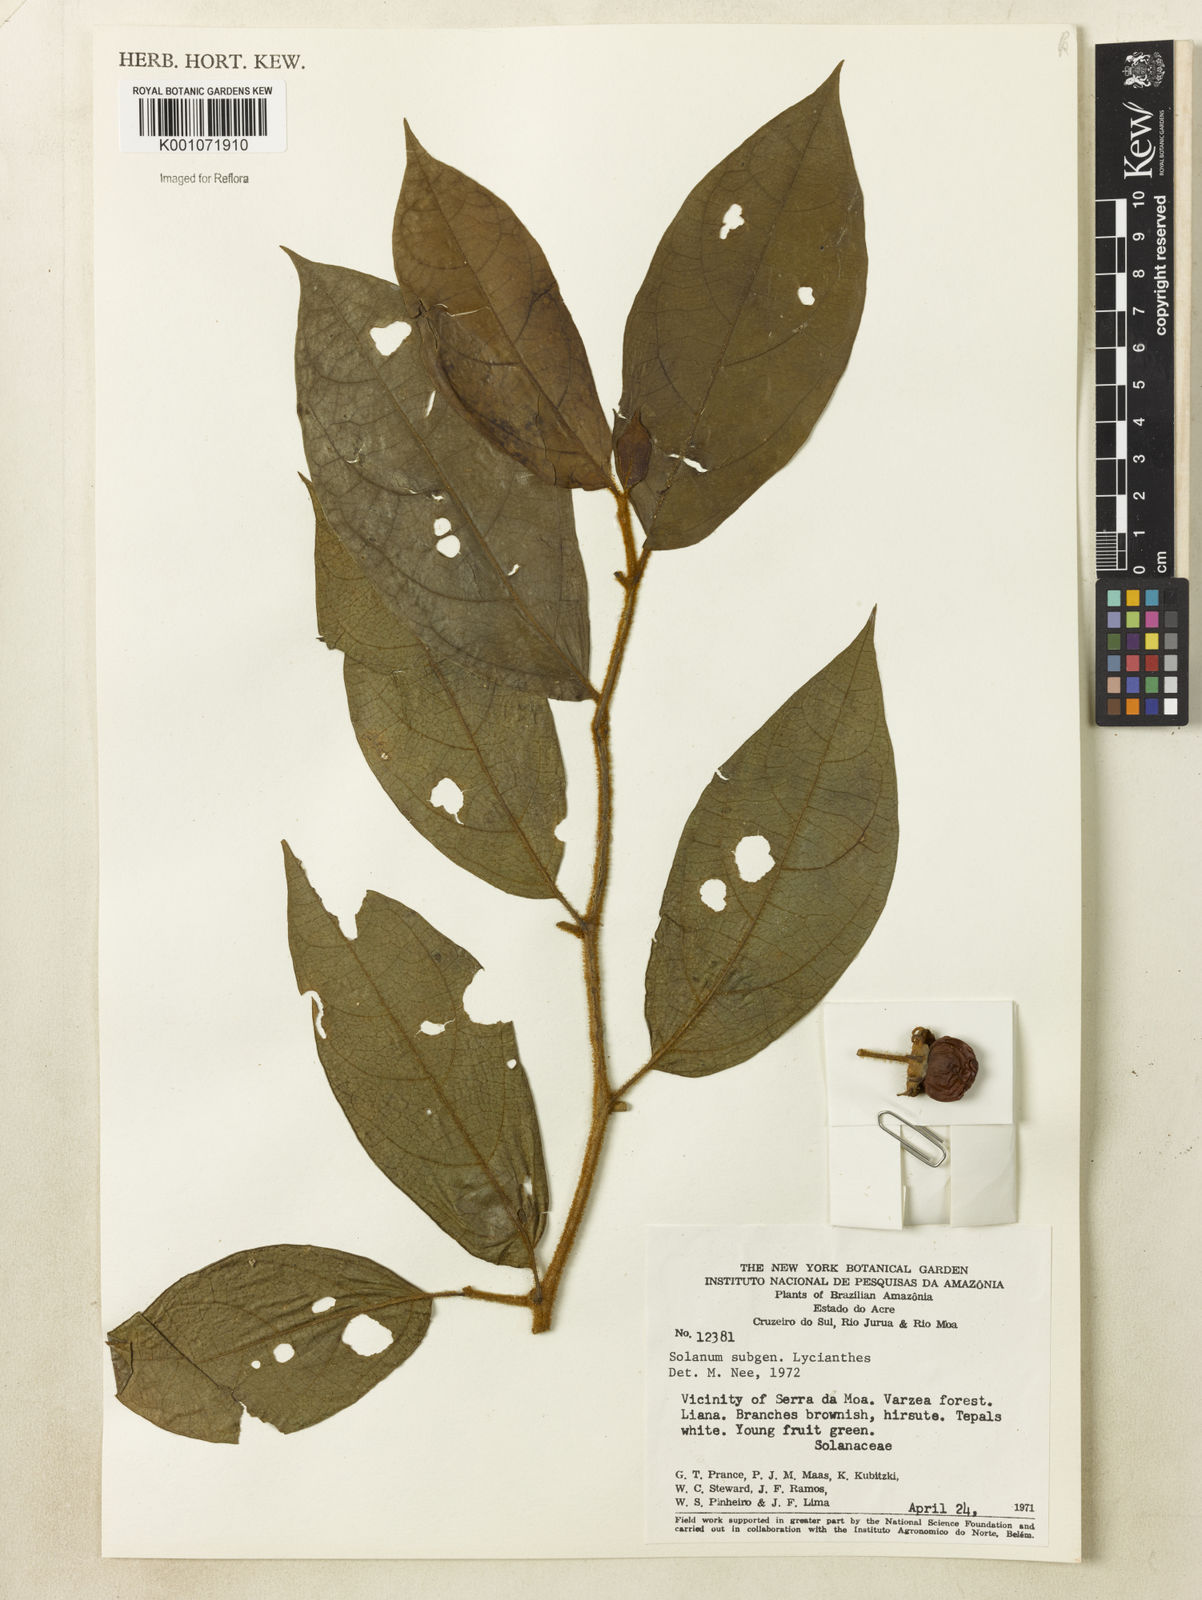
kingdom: Plantae
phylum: Tracheophyta
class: Magnoliopsida
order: Solanales
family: Solanaceae
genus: Lycianthes
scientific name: Lycianthes
